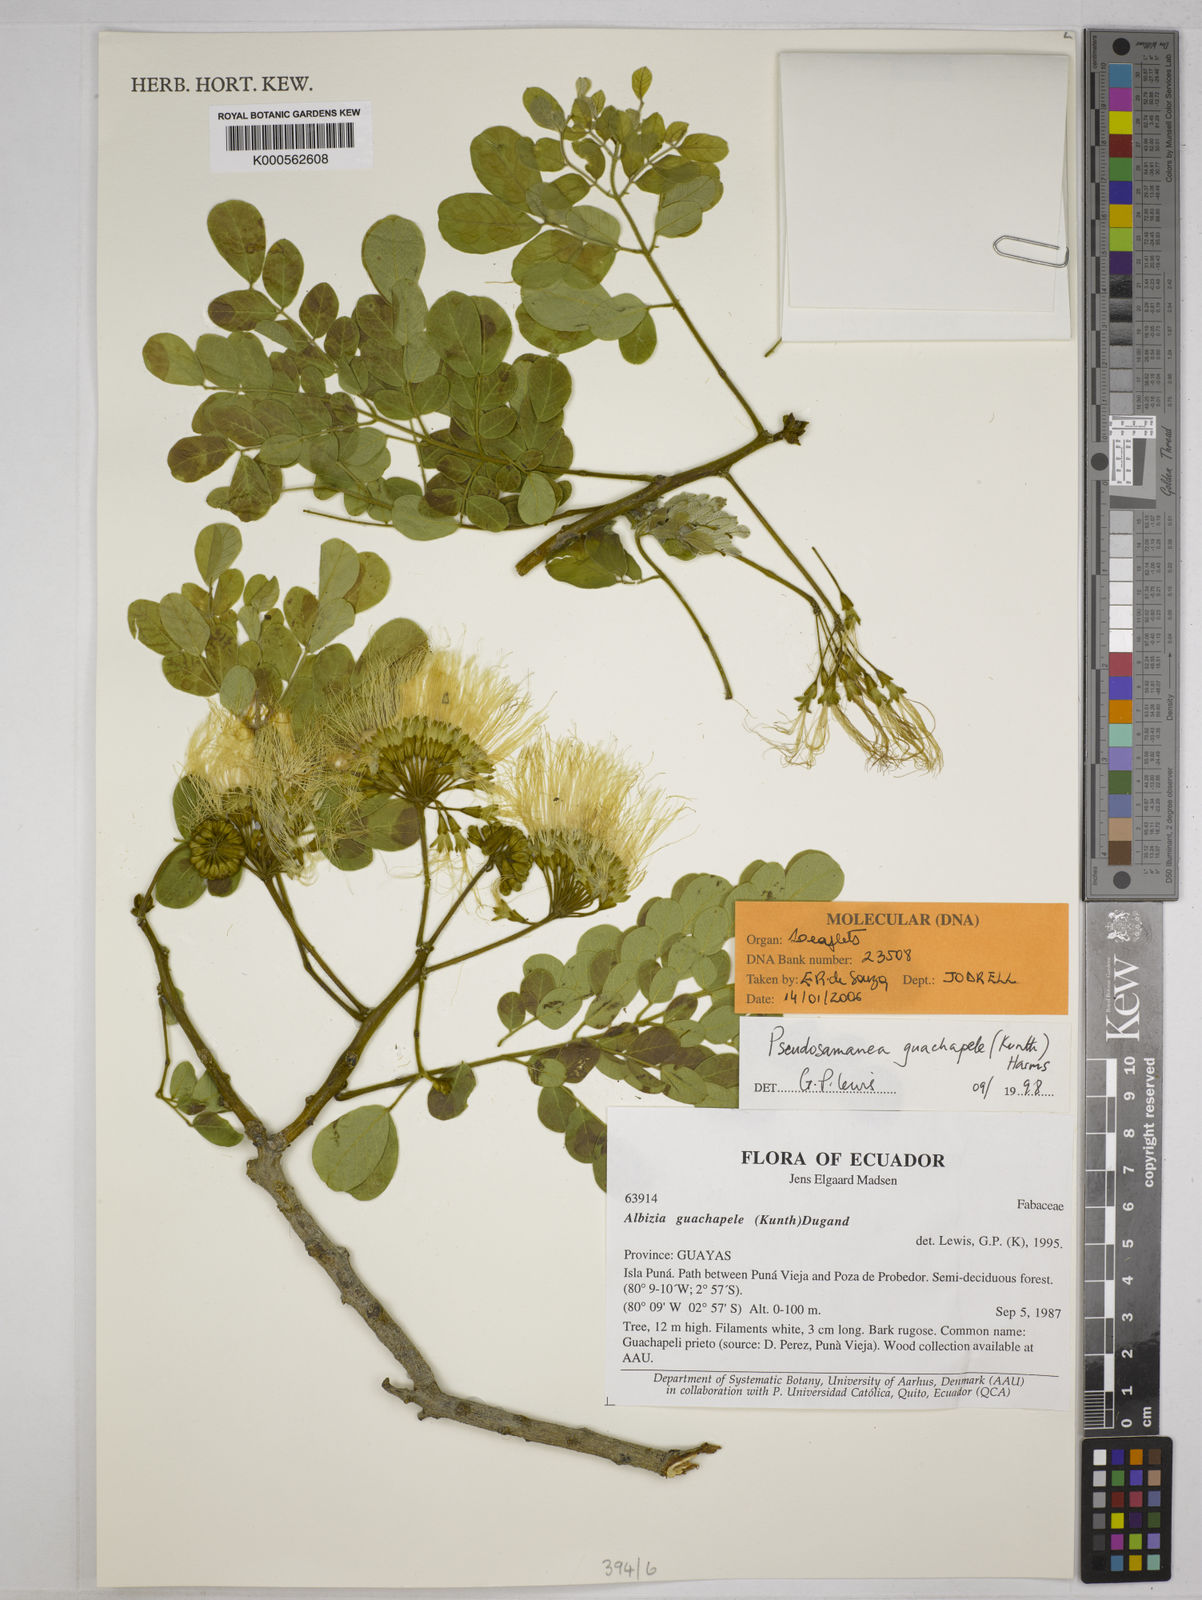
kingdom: Plantae
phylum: Tracheophyta
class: Magnoliopsida
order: Fabales
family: Fabaceae
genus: Pseudosamanea
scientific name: Pseudosamanea guachapele
